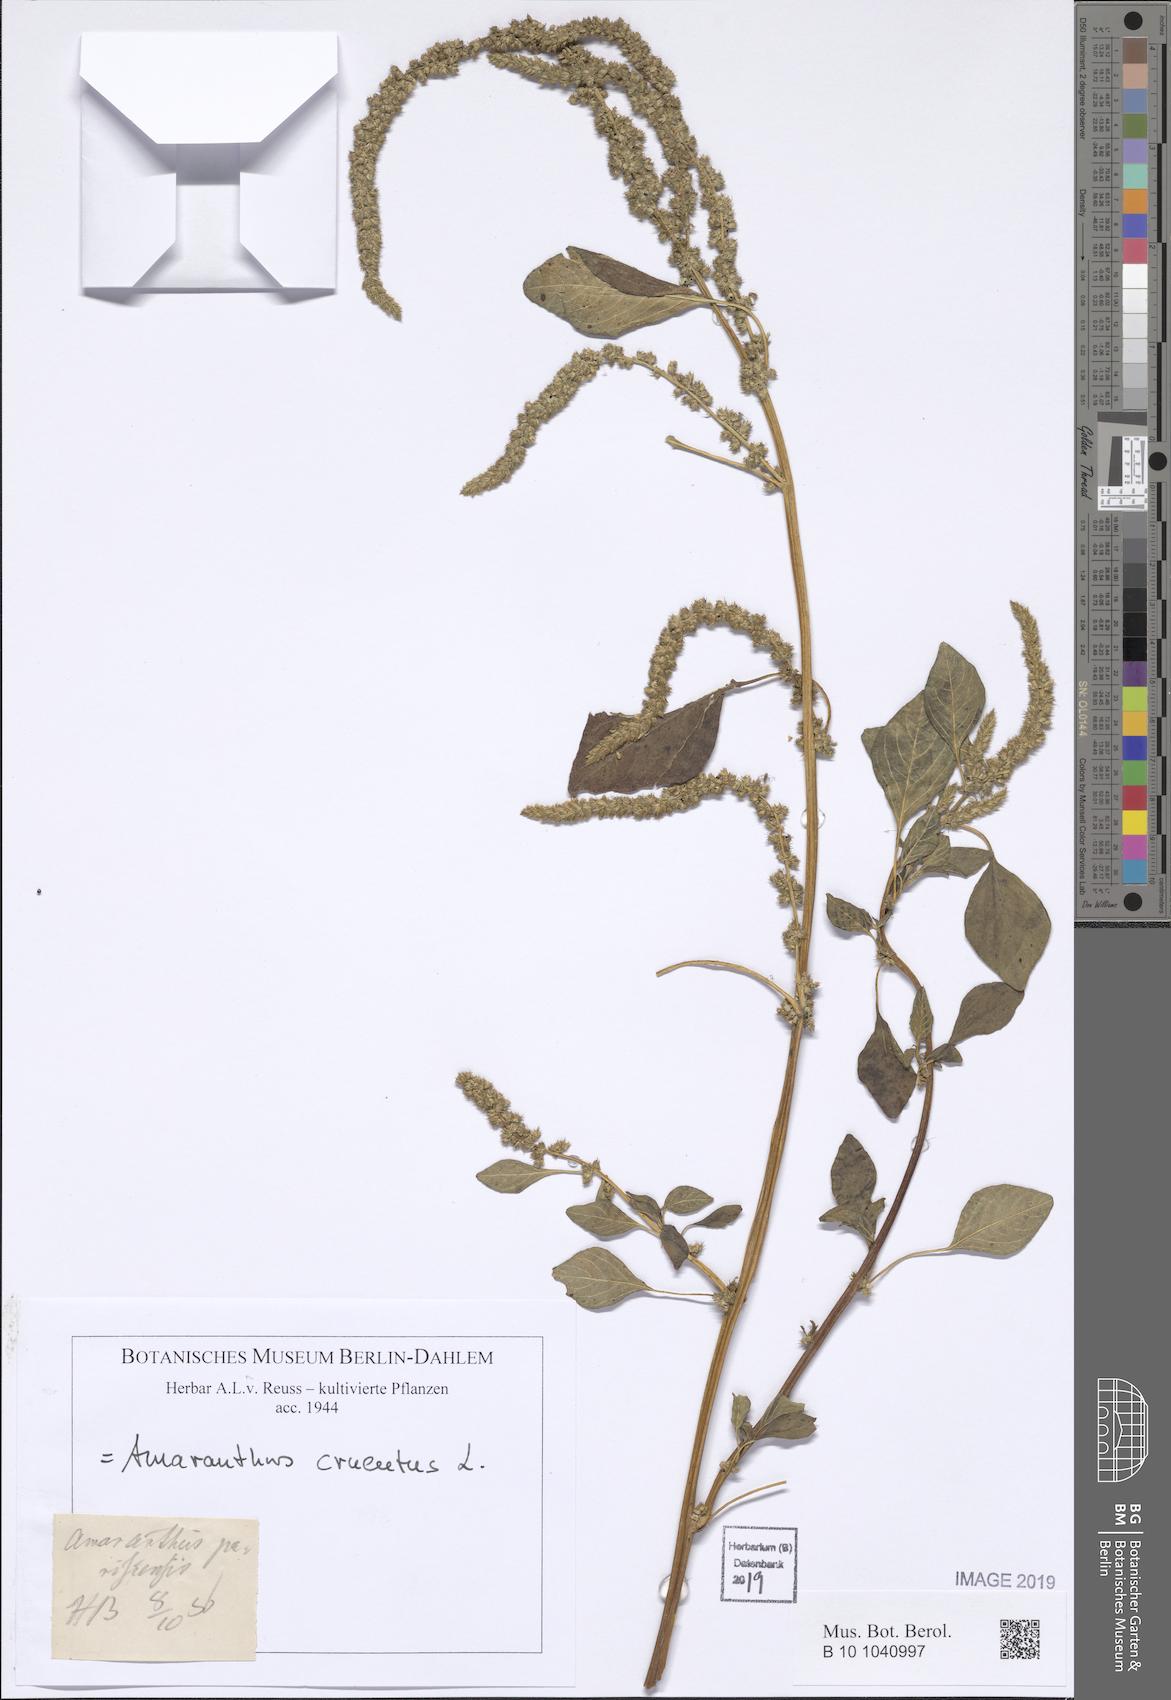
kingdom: Plantae
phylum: Tracheophyta
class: Magnoliopsida
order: Caryophyllales
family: Amaranthaceae
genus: Amaranthus
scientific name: Amaranthus cruentus
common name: Purple amaranth
